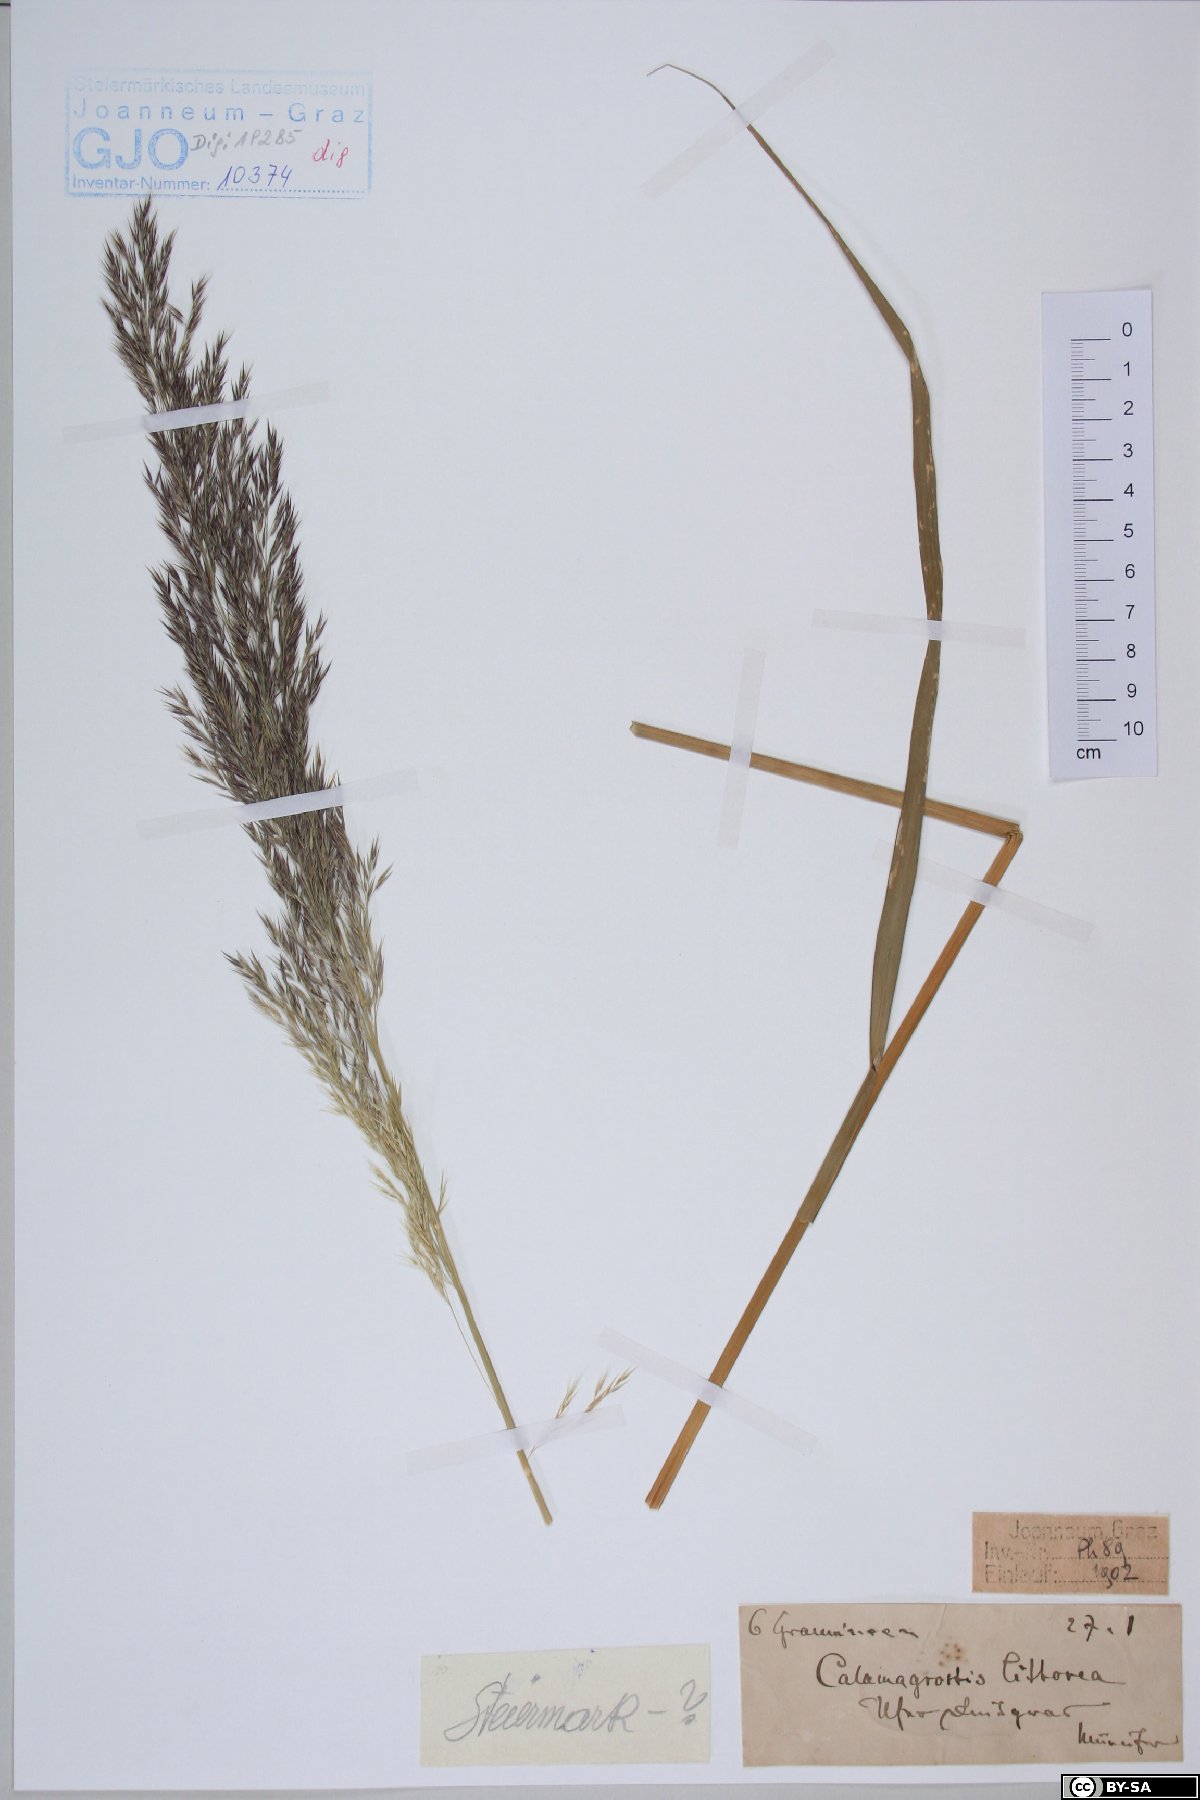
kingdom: Plantae
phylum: Tracheophyta
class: Liliopsida
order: Poales
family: Poaceae
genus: Calamagrostis
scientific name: Calamagrostis pseudophragmites
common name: Coastal small-reed
